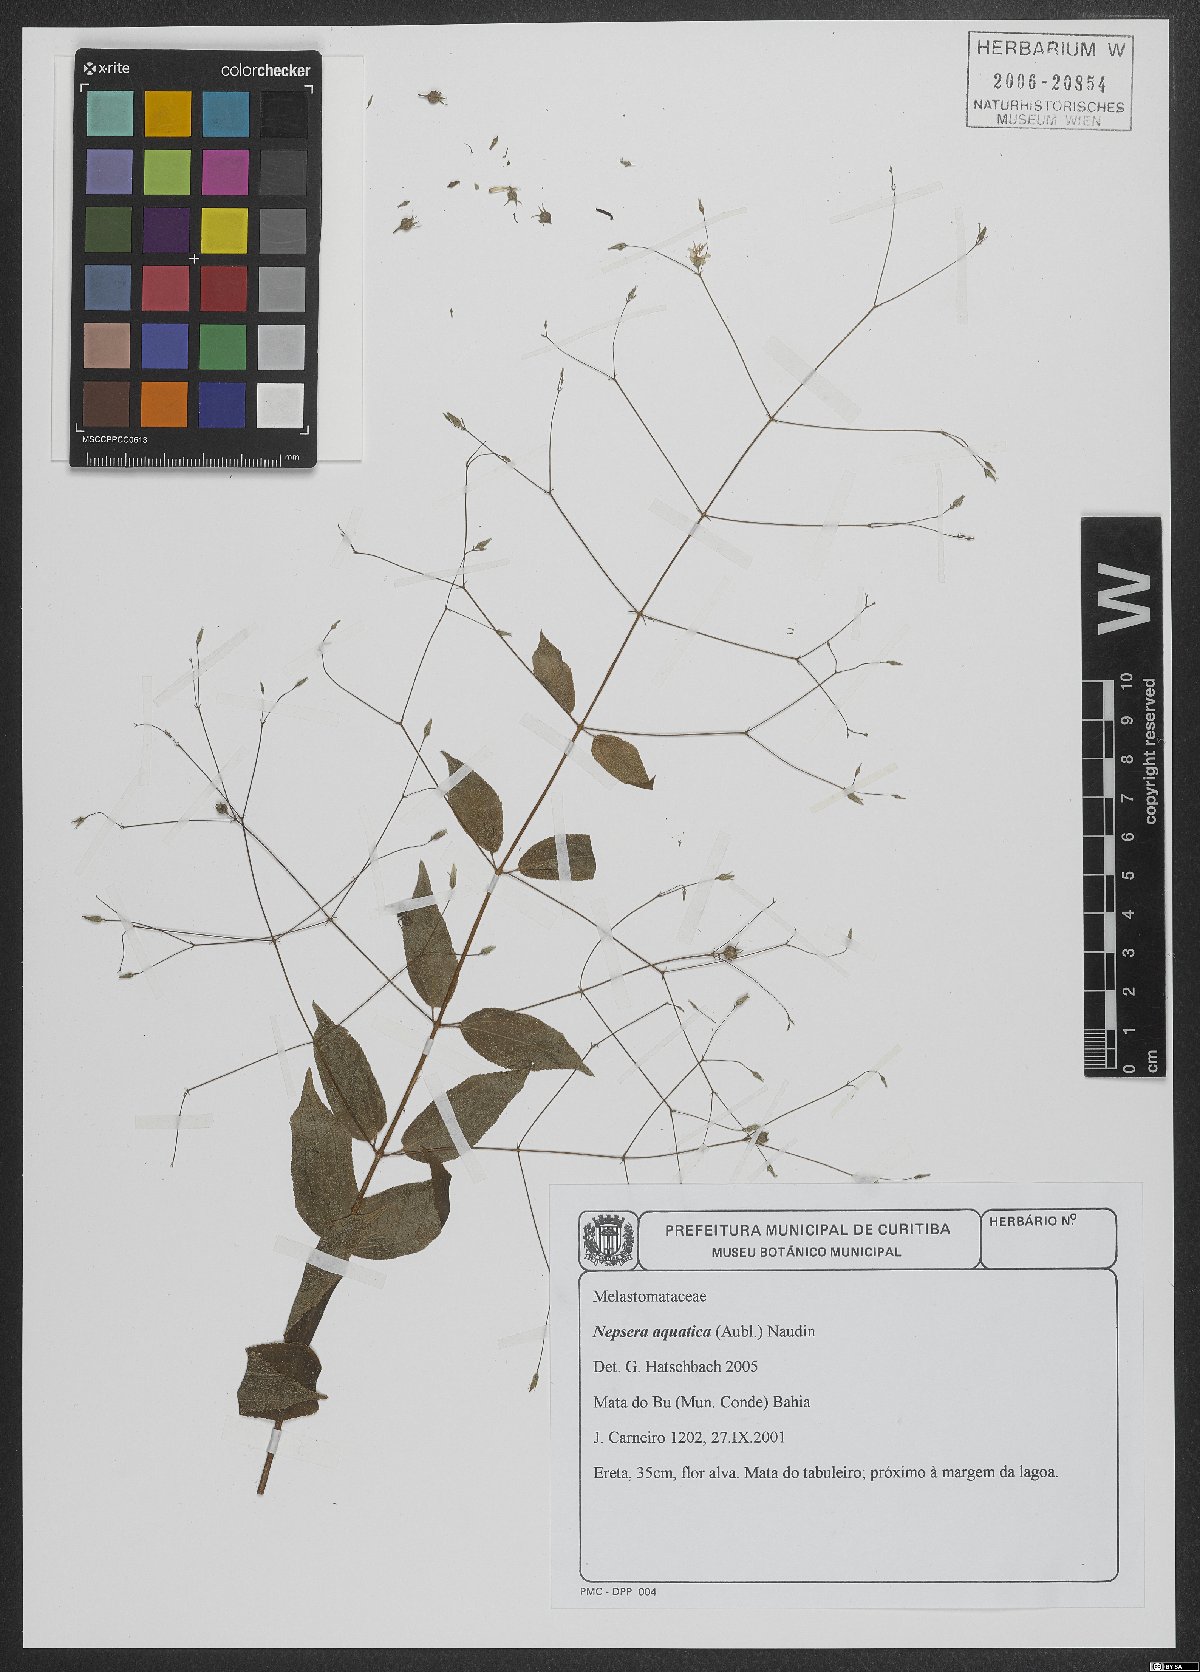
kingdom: Plantae
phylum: Tracheophyta
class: Magnoliopsida
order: Myrtales
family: Melastomataceae
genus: Nepsera
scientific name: Nepsera aquatica
